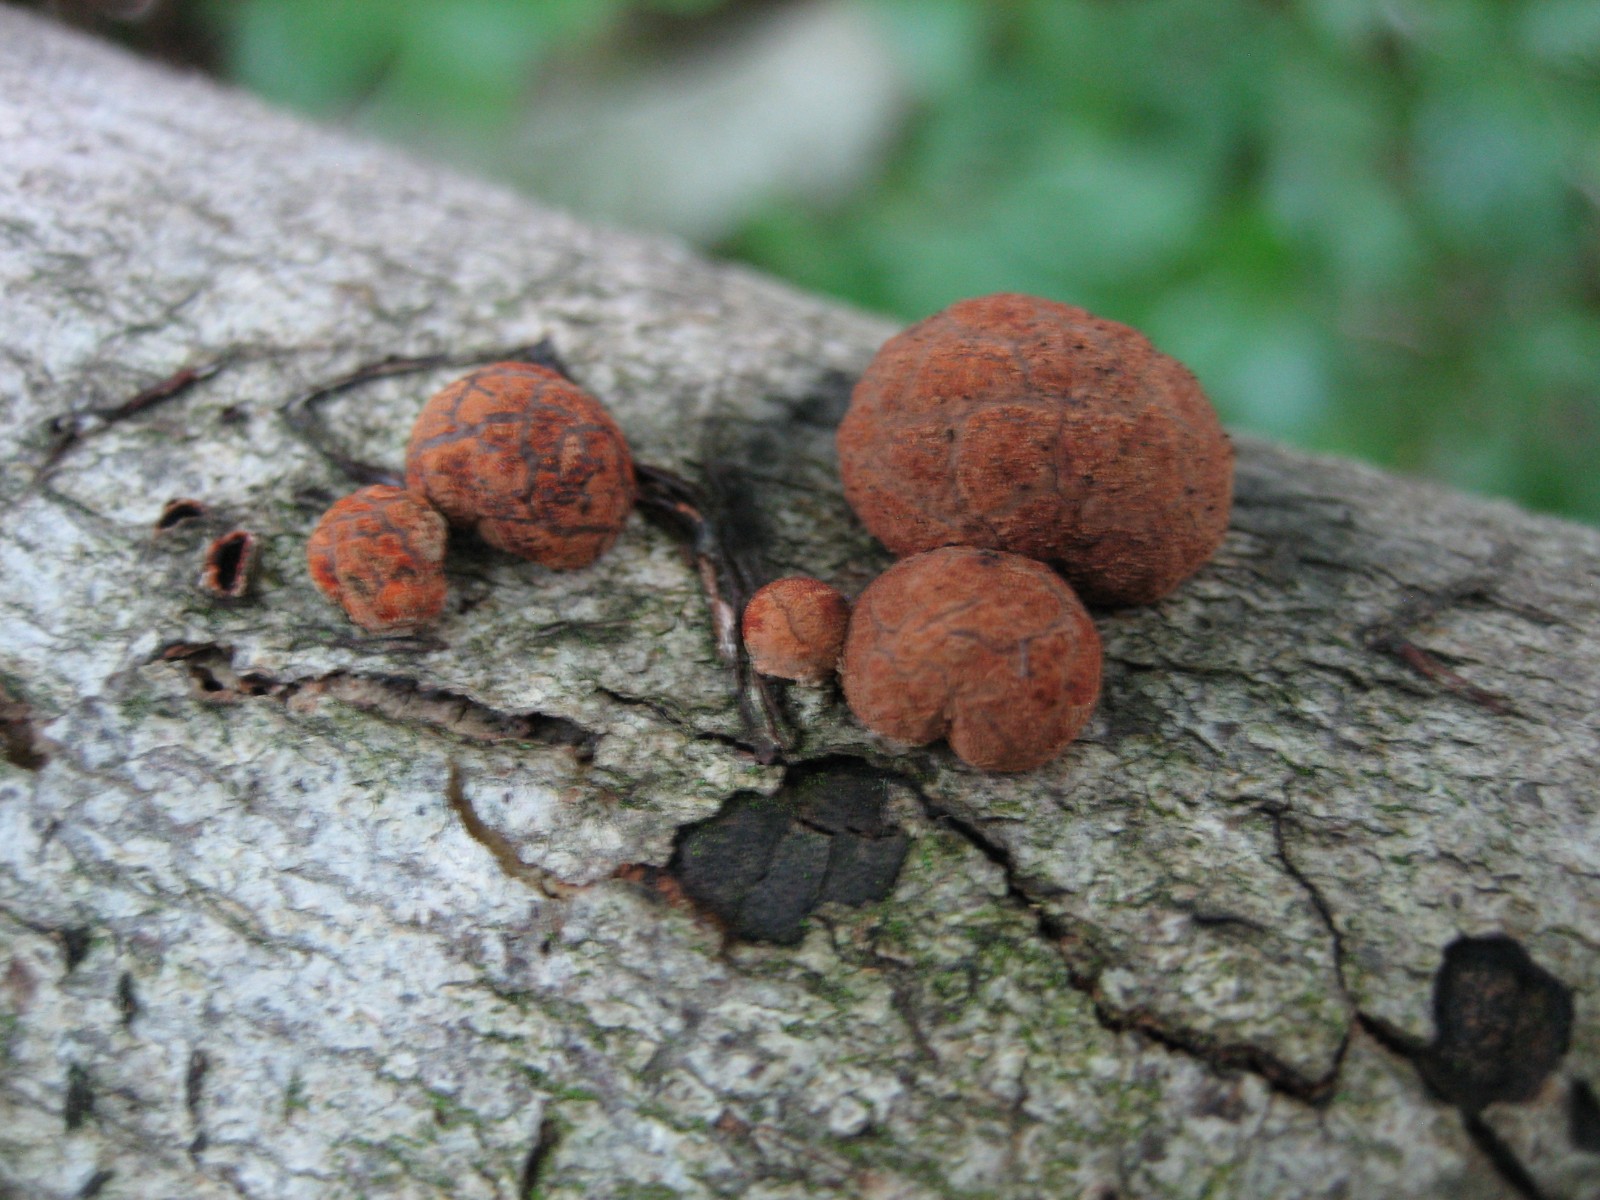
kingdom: Fungi
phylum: Ascomycota
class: Sordariomycetes
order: Xylariales
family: Hypoxylaceae
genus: Hypoxylon
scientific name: Hypoxylon fragiforme
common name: kuljordbær
